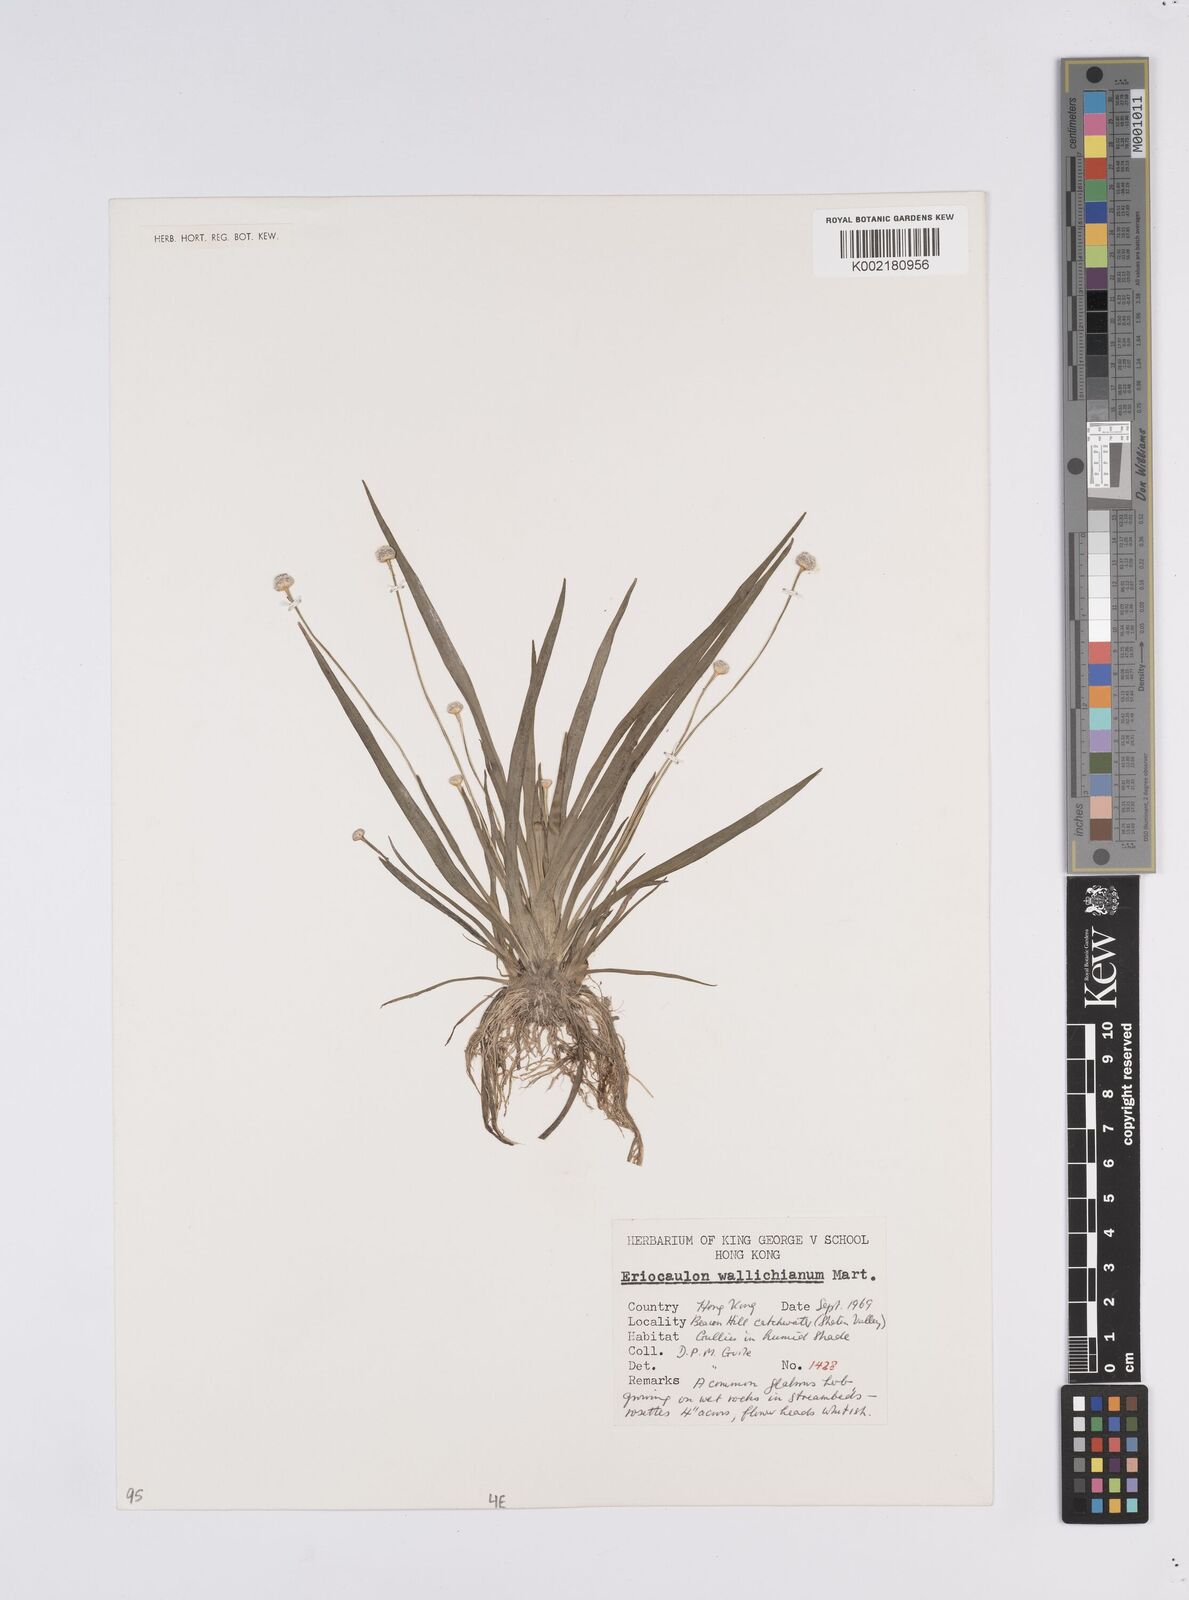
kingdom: Plantae
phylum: Tracheophyta
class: Liliopsida
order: Poales
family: Eriocaulaceae
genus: Eriocaulon
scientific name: Eriocaulon australe
